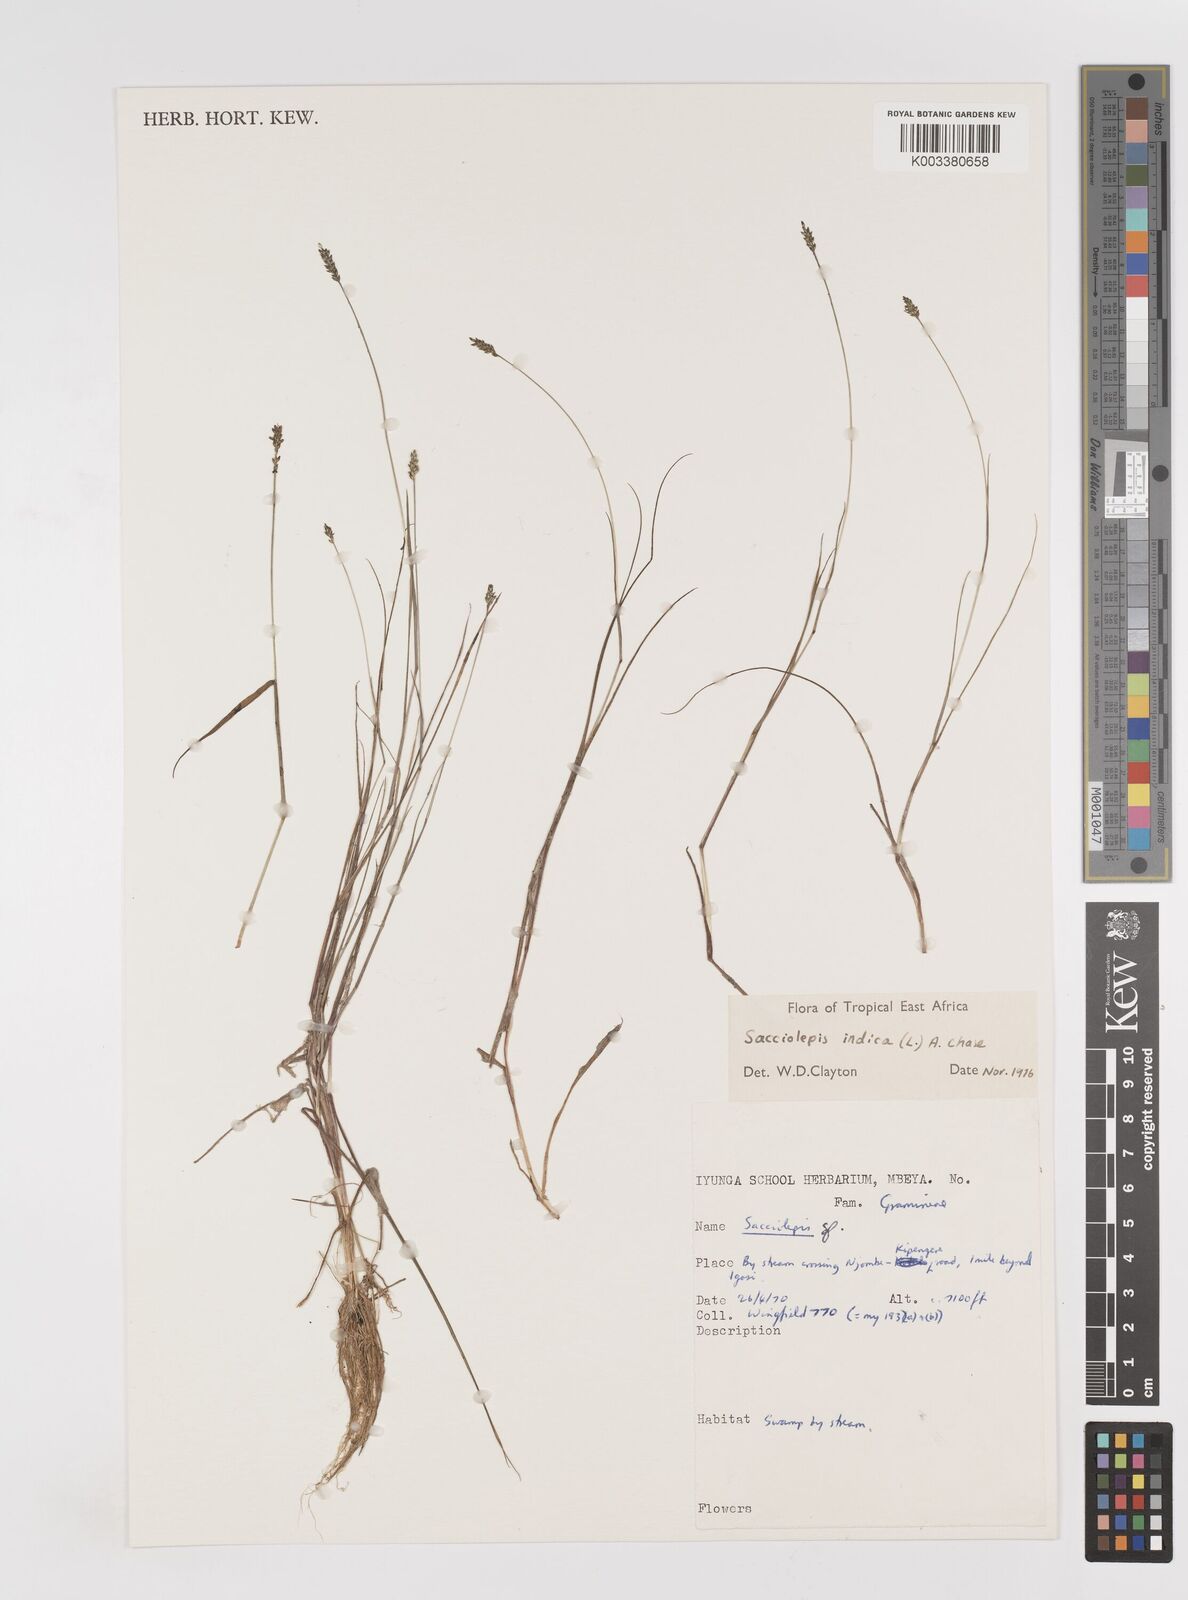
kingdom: Plantae
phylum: Tracheophyta
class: Liliopsida
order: Poales
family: Poaceae
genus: Sacciolepis
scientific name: Sacciolepis indica
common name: Glenwoodgrass
